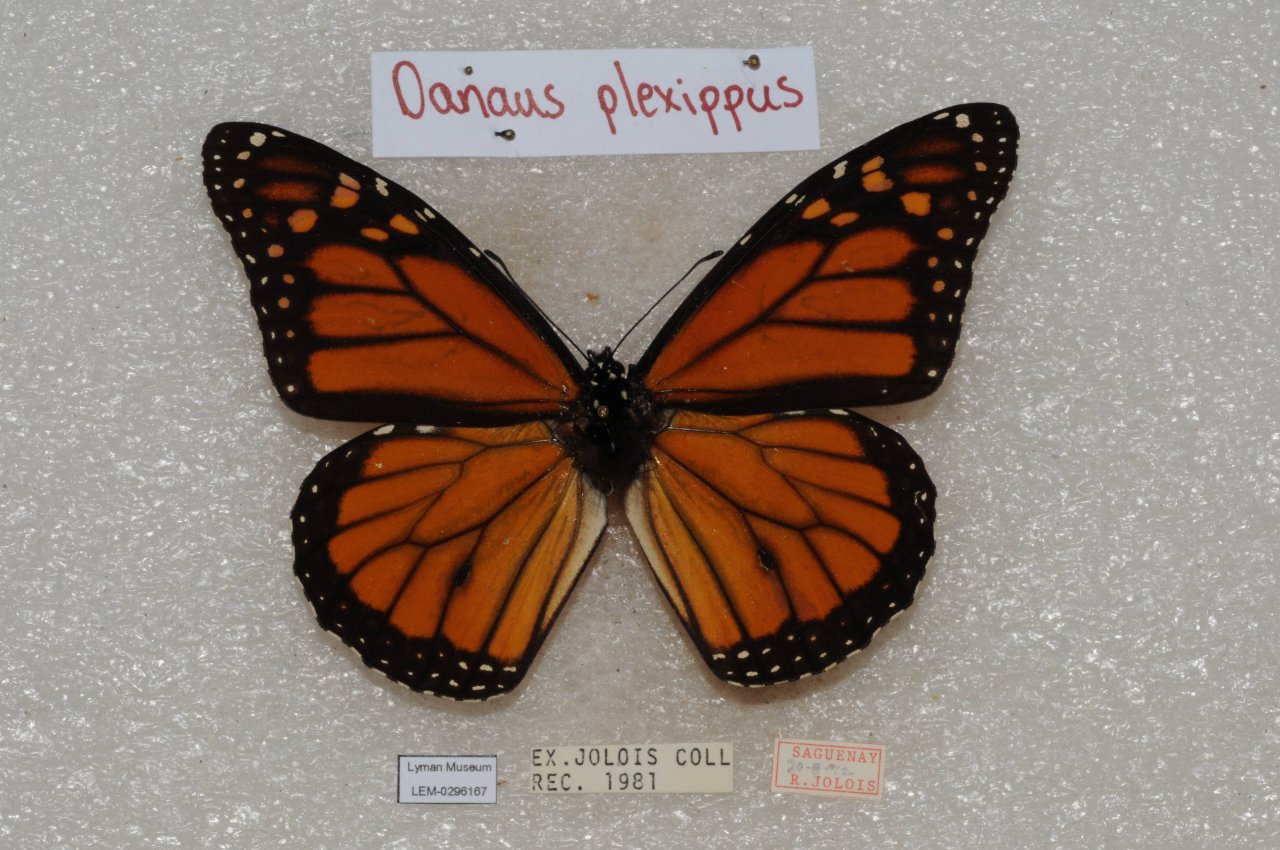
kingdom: Animalia
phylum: Arthropoda
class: Insecta
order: Lepidoptera
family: Nymphalidae
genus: Danaus
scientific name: Danaus plexippus
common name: Monarch
